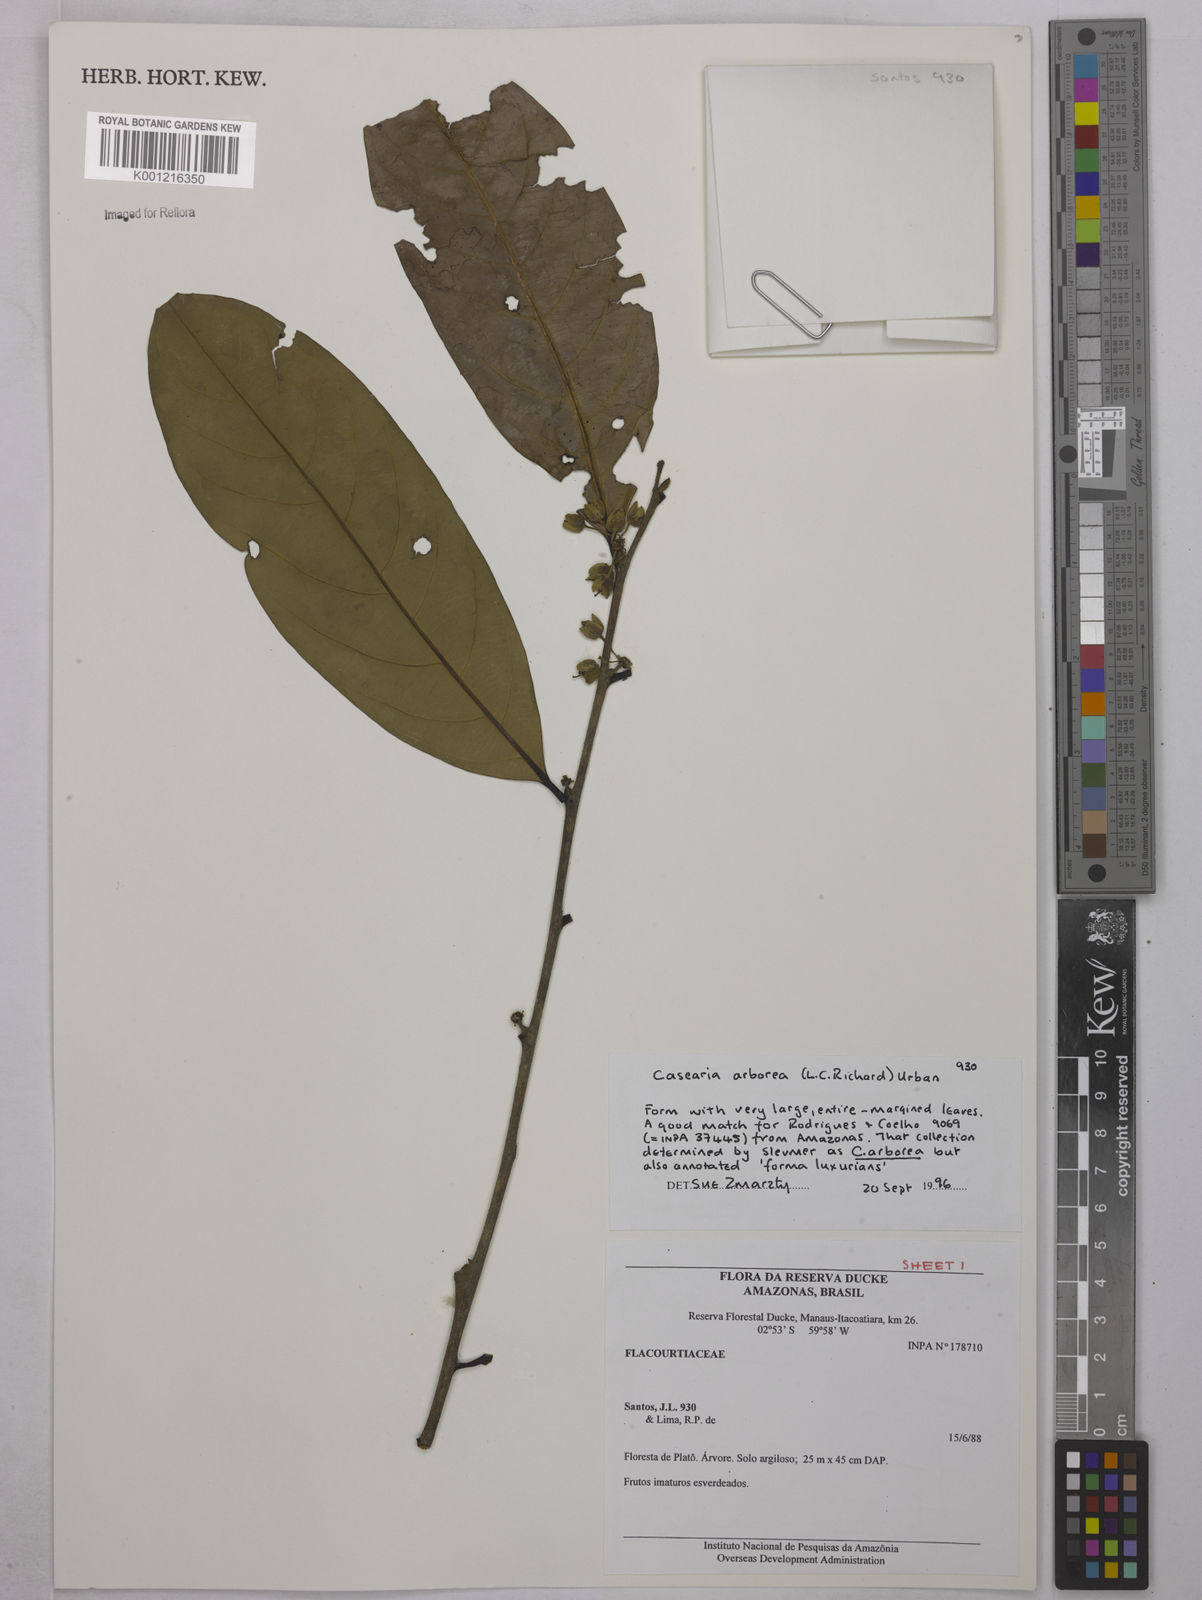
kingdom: Plantae
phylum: Tracheophyta
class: Magnoliopsida
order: Malpighiales
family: Salicaceae
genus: Casearia
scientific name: Casearia arborea
